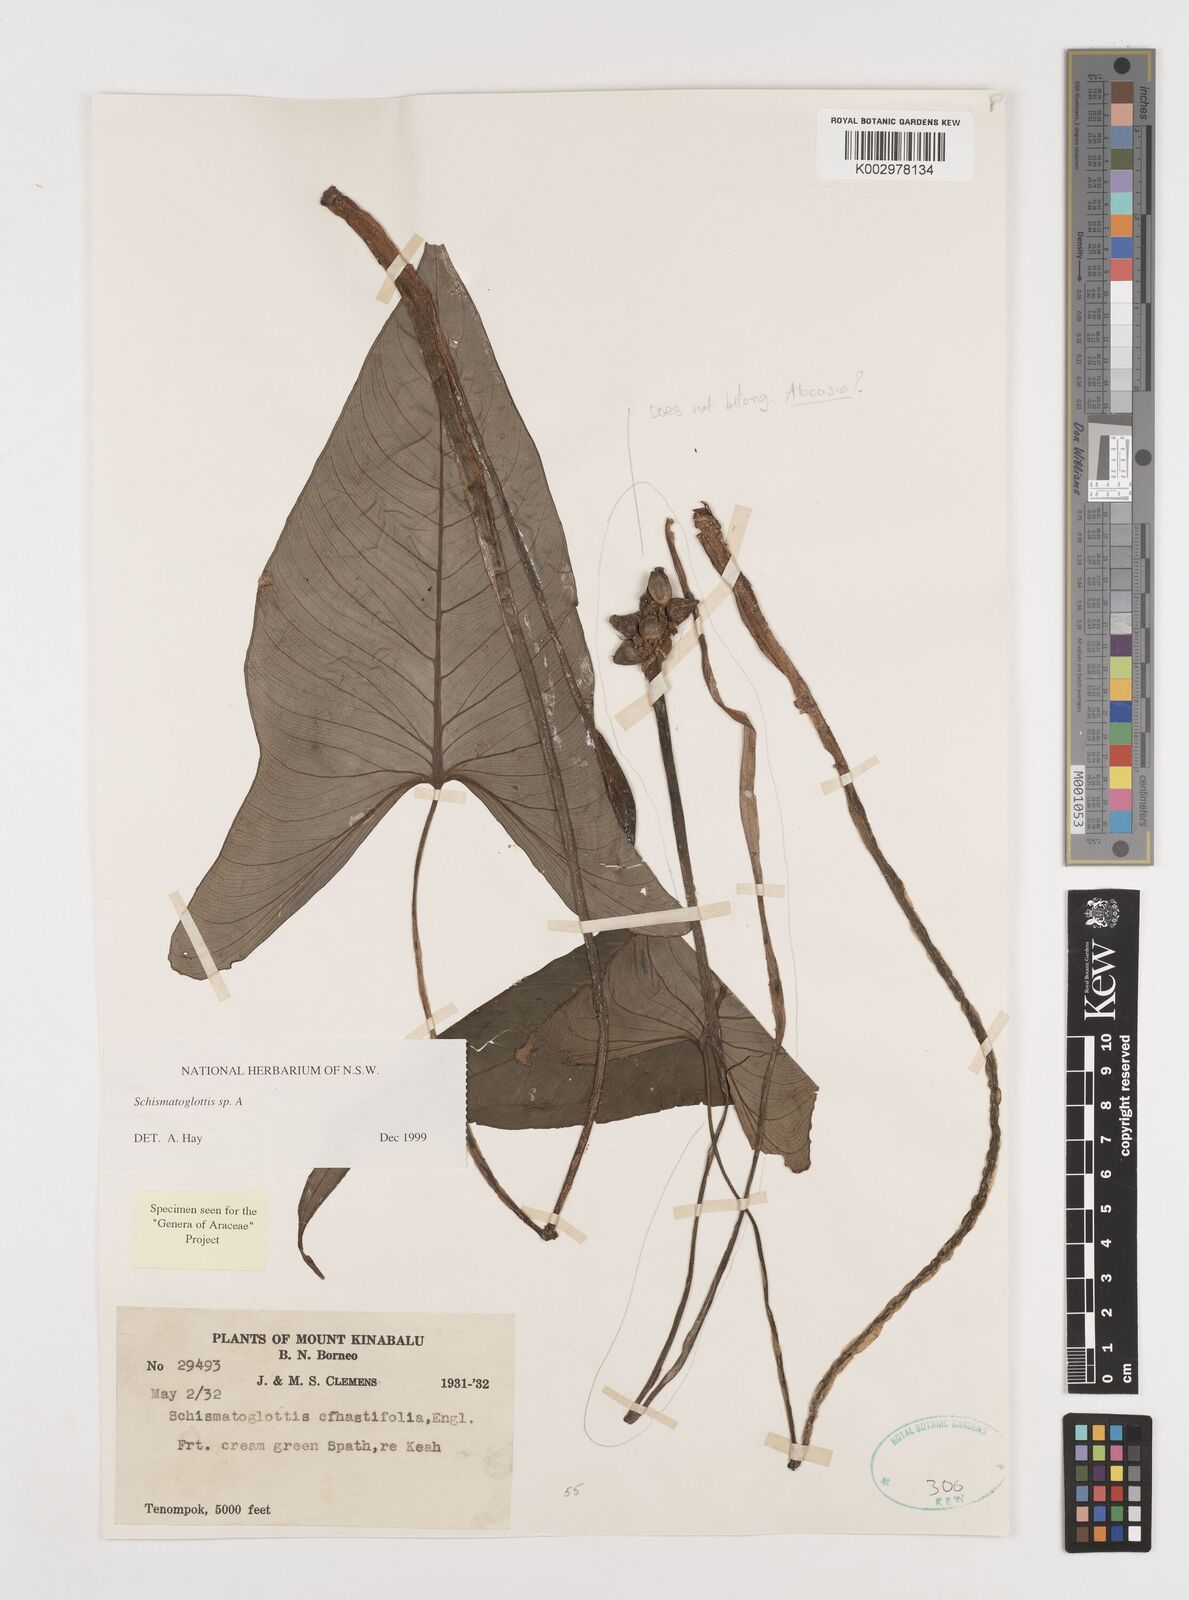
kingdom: Plantae
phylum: Tracheophyta
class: Liliopsida
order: Alismatales
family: Araceae
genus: Schismatoglottis
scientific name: Schismatoglottis
